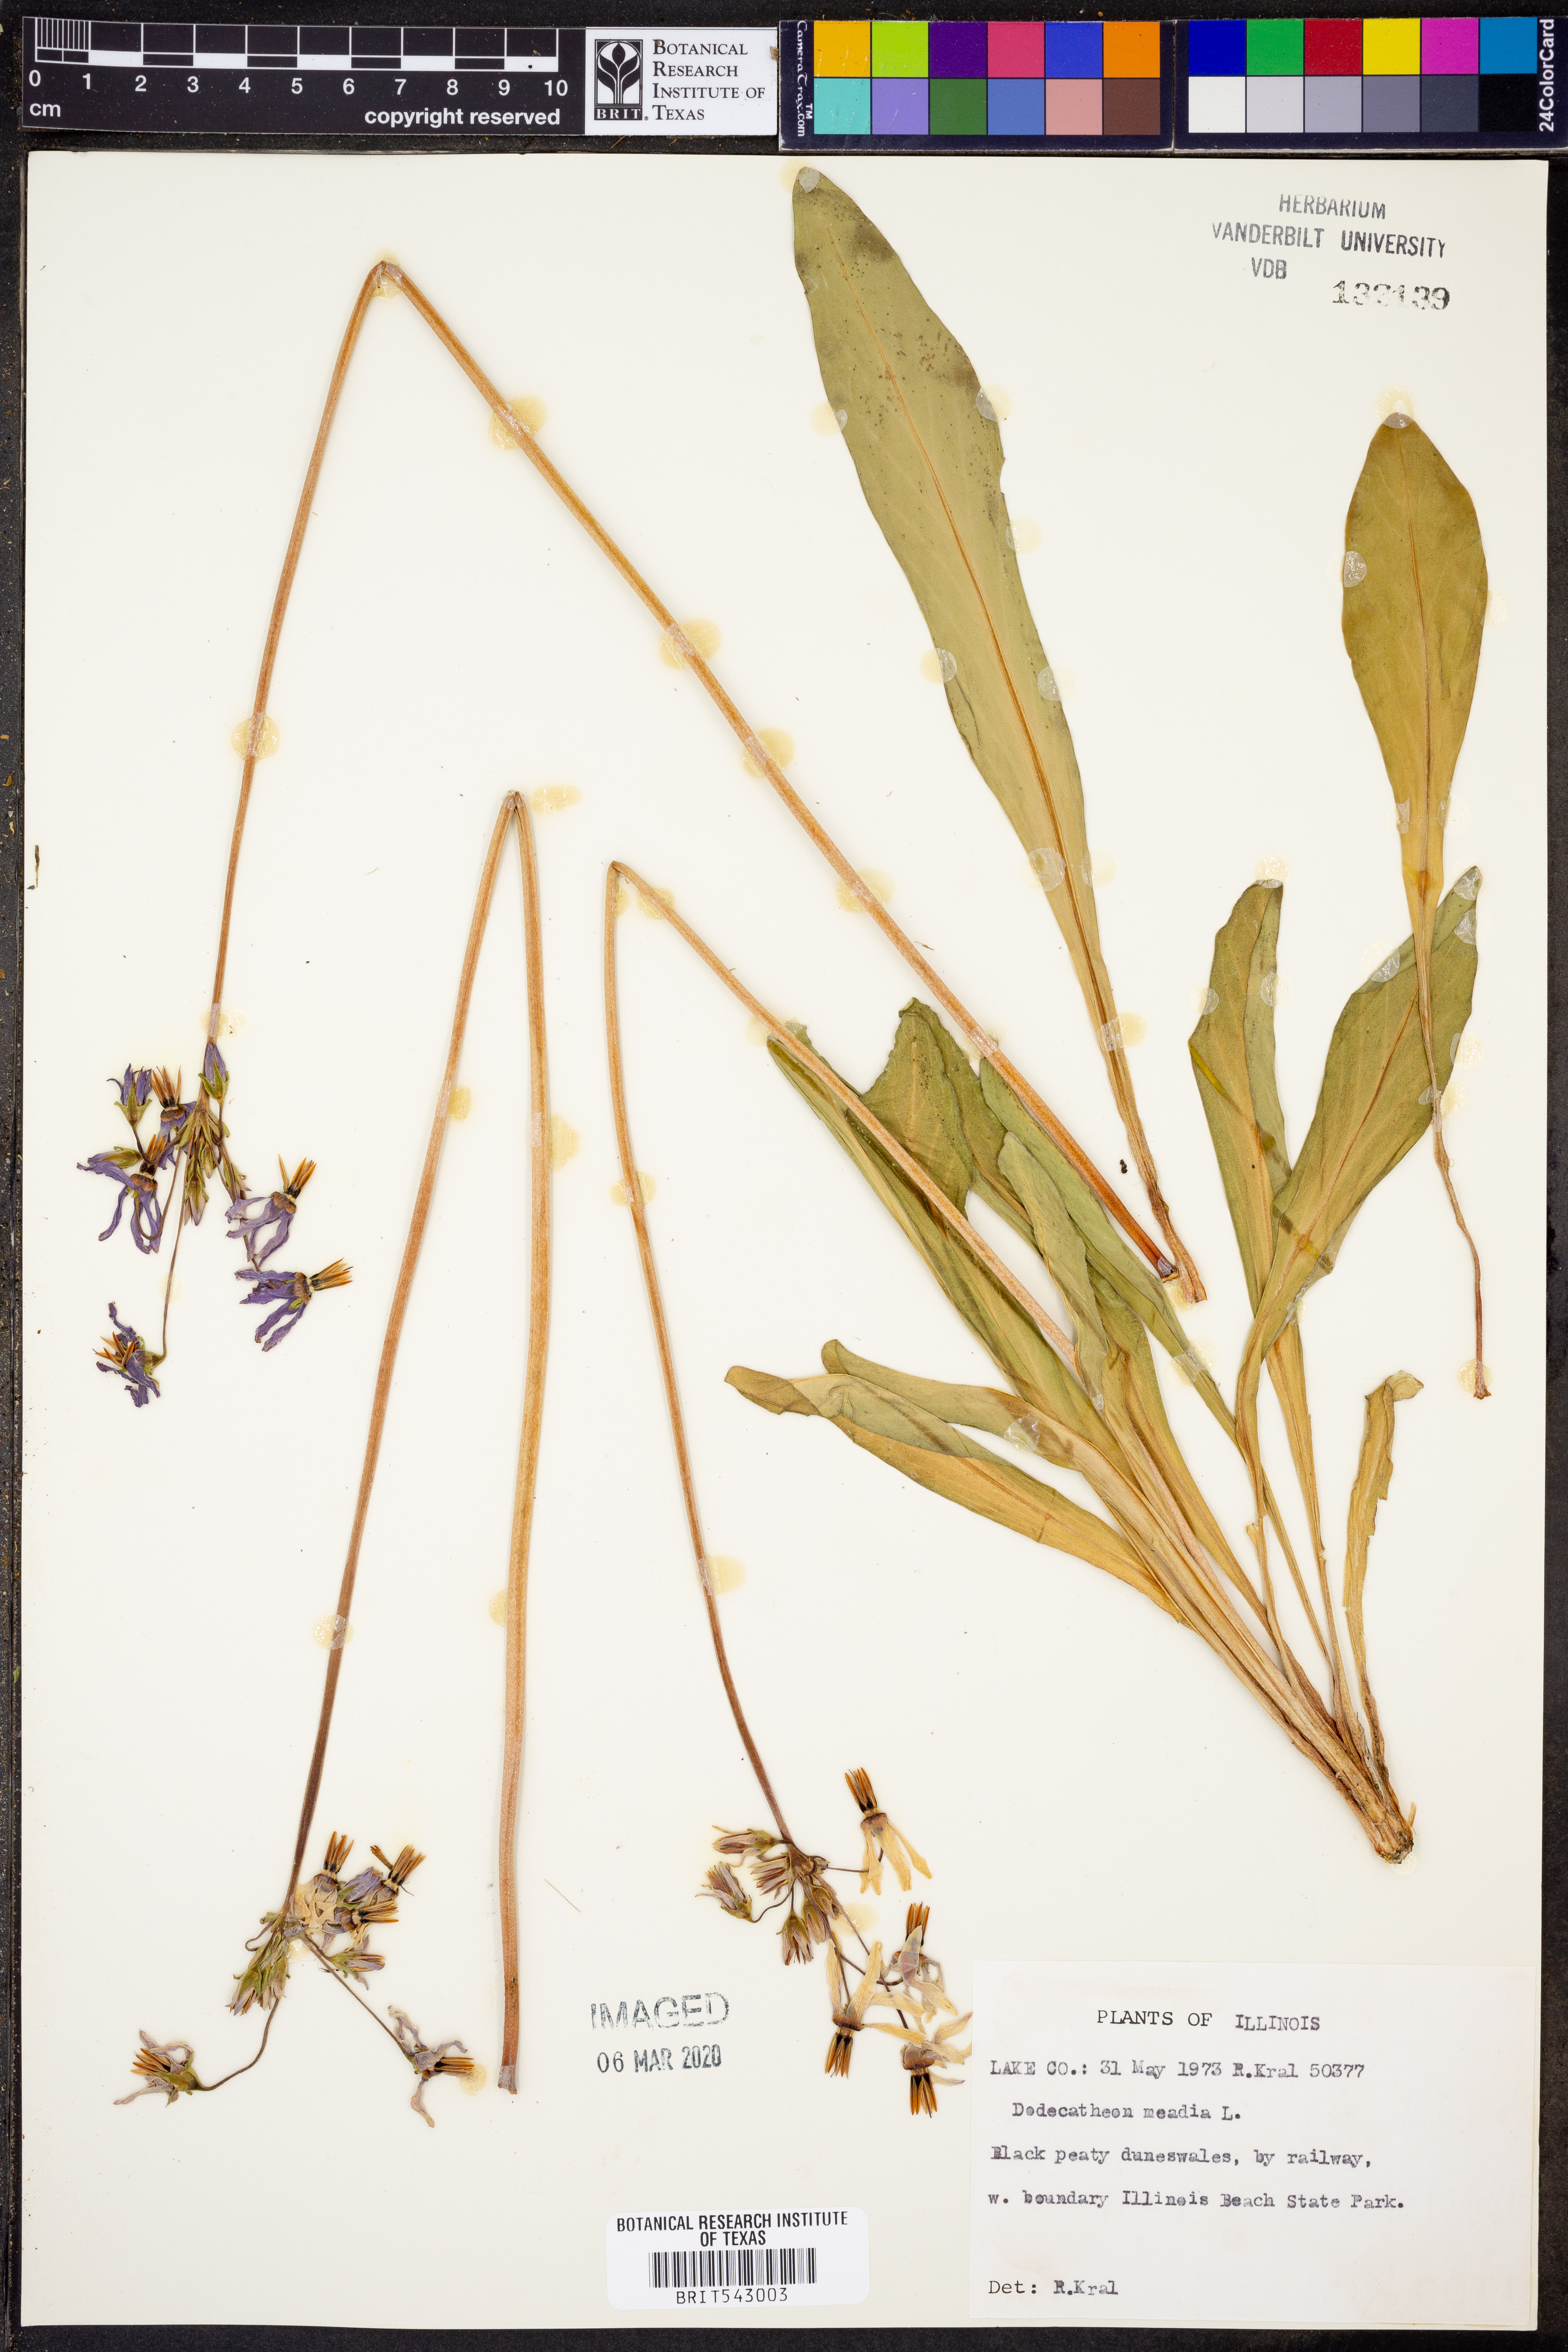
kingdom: Plantae
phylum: Tracheophyta
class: Magnoliopsida
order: Ericales
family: Primulaceae
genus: Dodecatheon
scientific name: Dodecatheon meadia
